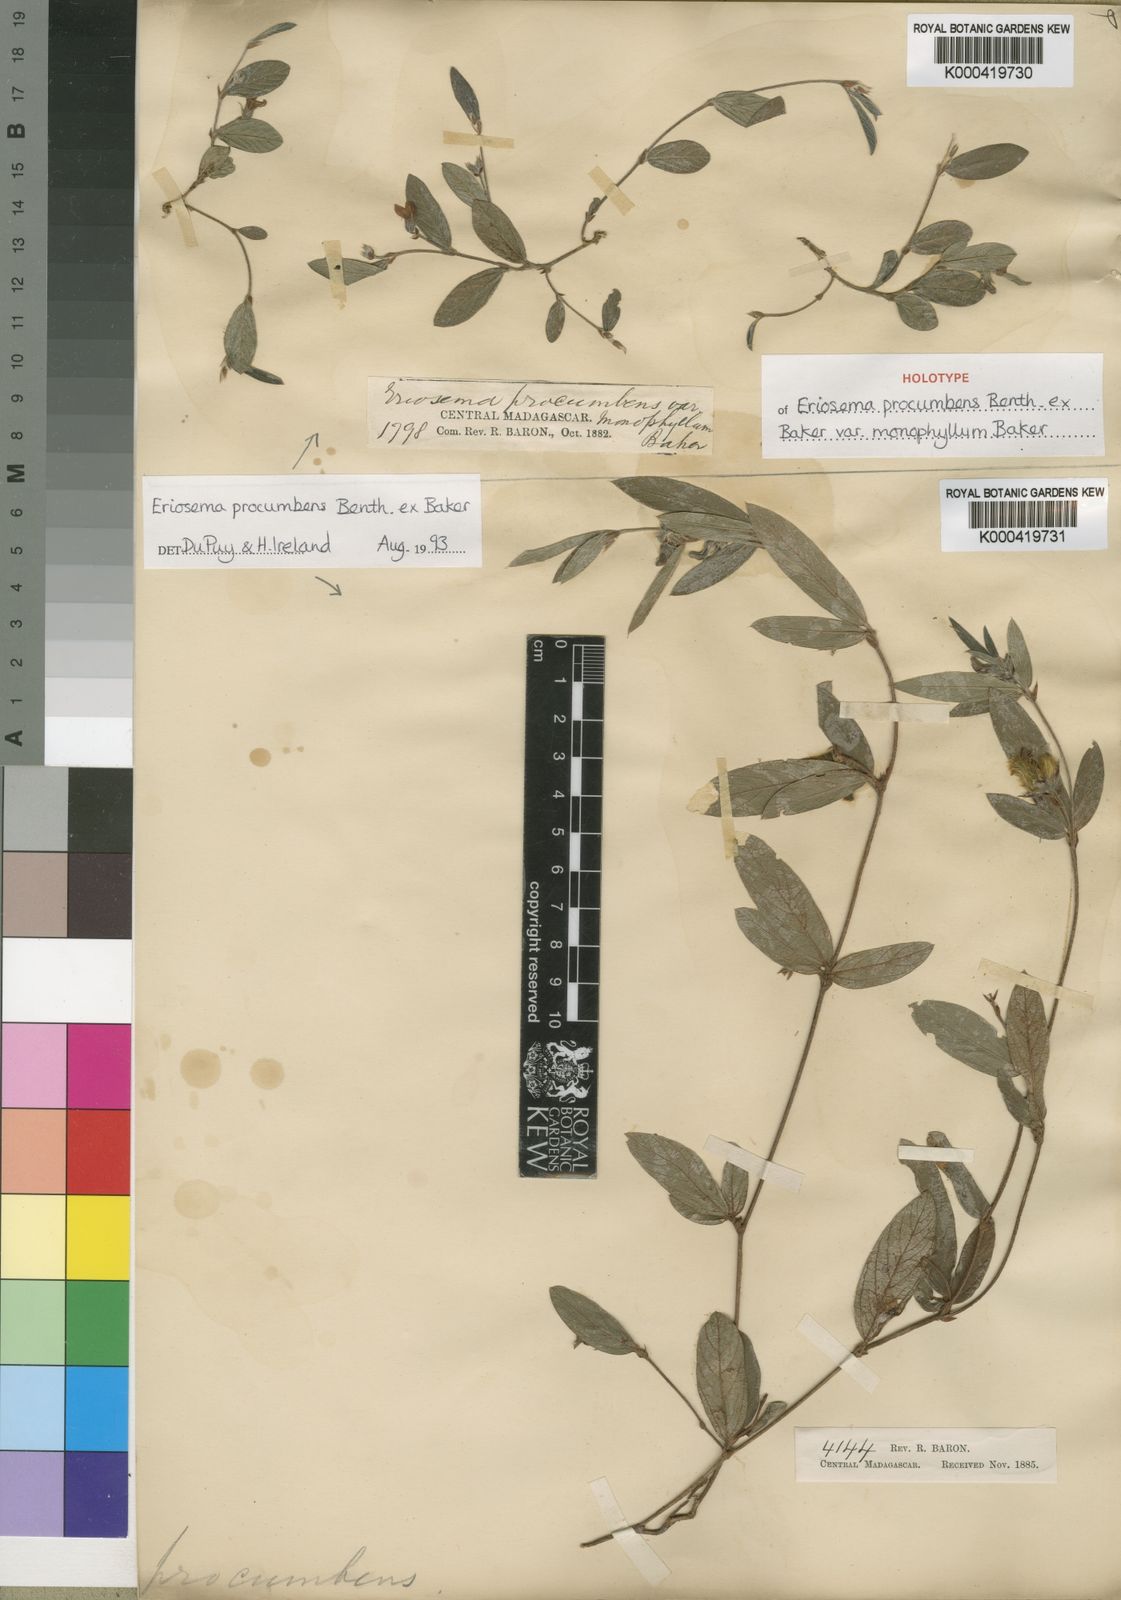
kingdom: Plantae
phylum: Tracheophyta
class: Magnoliopsida
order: Fabales
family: Fabaceae
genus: Eriosema
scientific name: Eriosema procumbens
